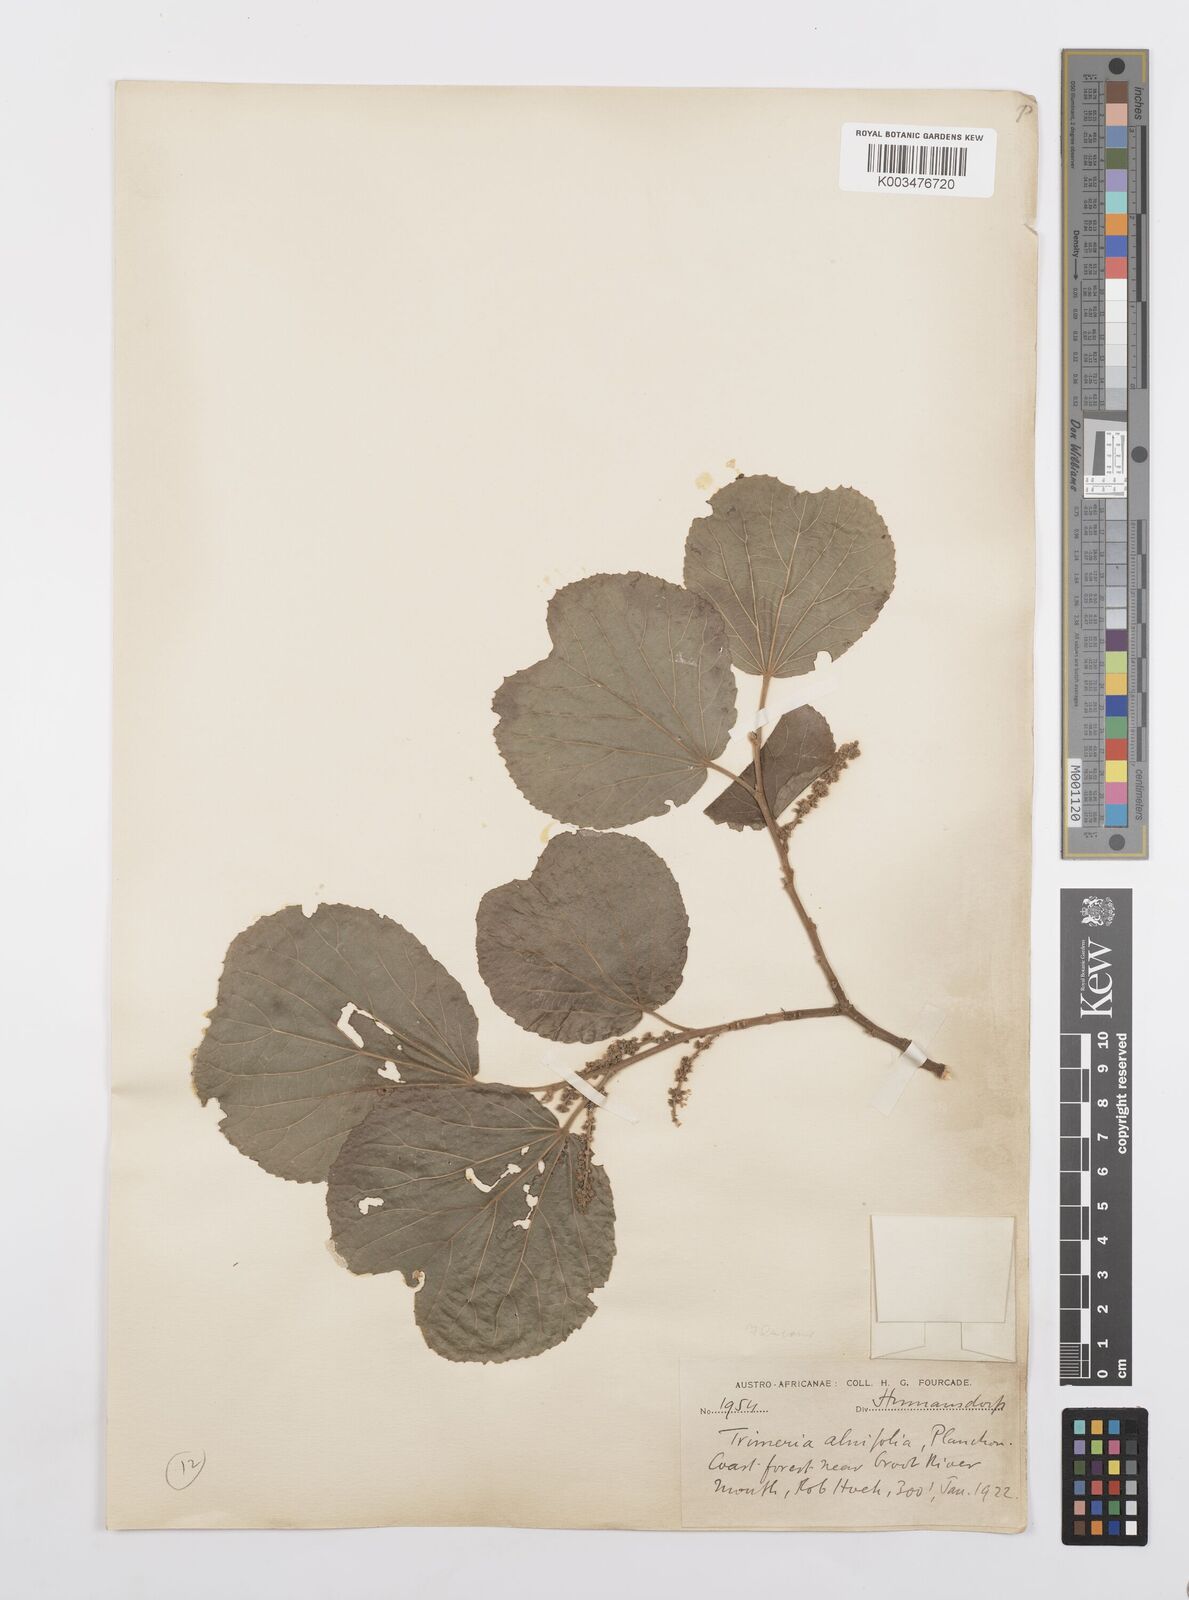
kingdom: Plantae
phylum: Tracheophyta
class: Magnoliopsida
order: Malpighiales
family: Salicaceae
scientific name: Salicaceae
